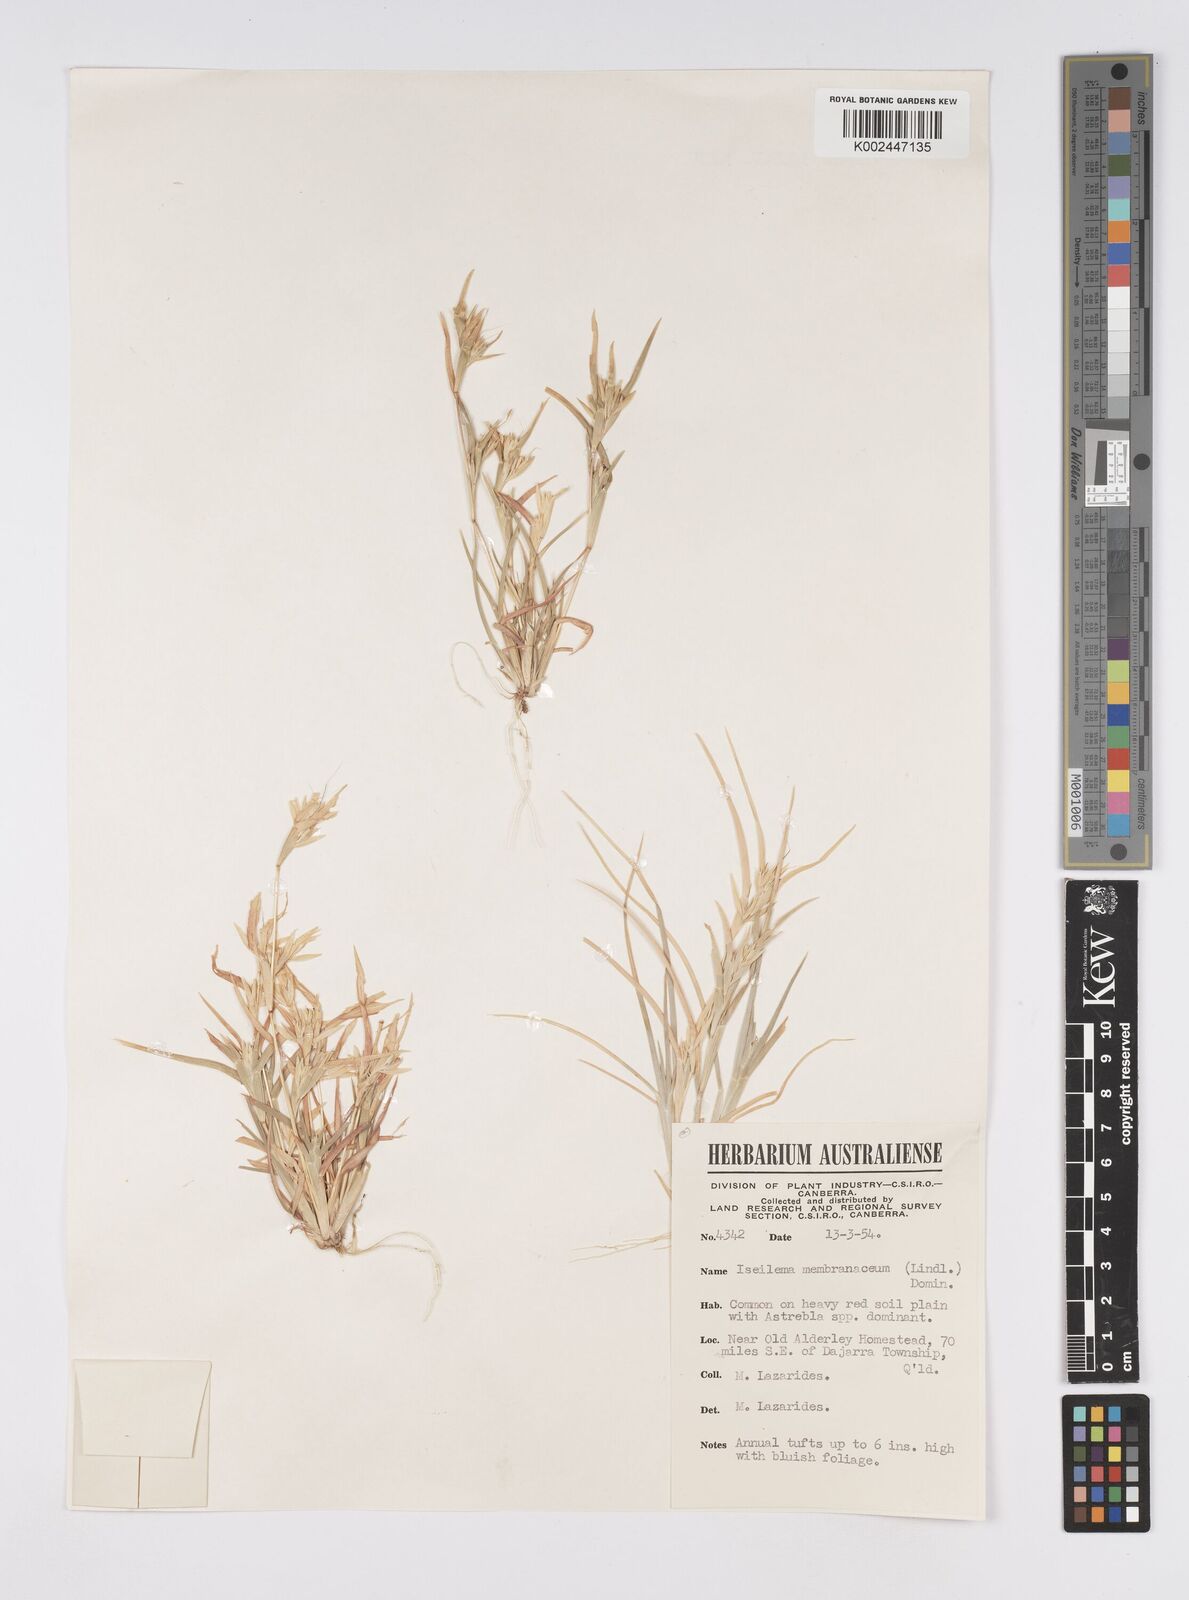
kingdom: Plantae
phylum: Tracheophyta
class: Liliopsida
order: Poales
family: Poaceae
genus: Iseilema
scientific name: Iseilema membranaceum
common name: Small flinders grass
